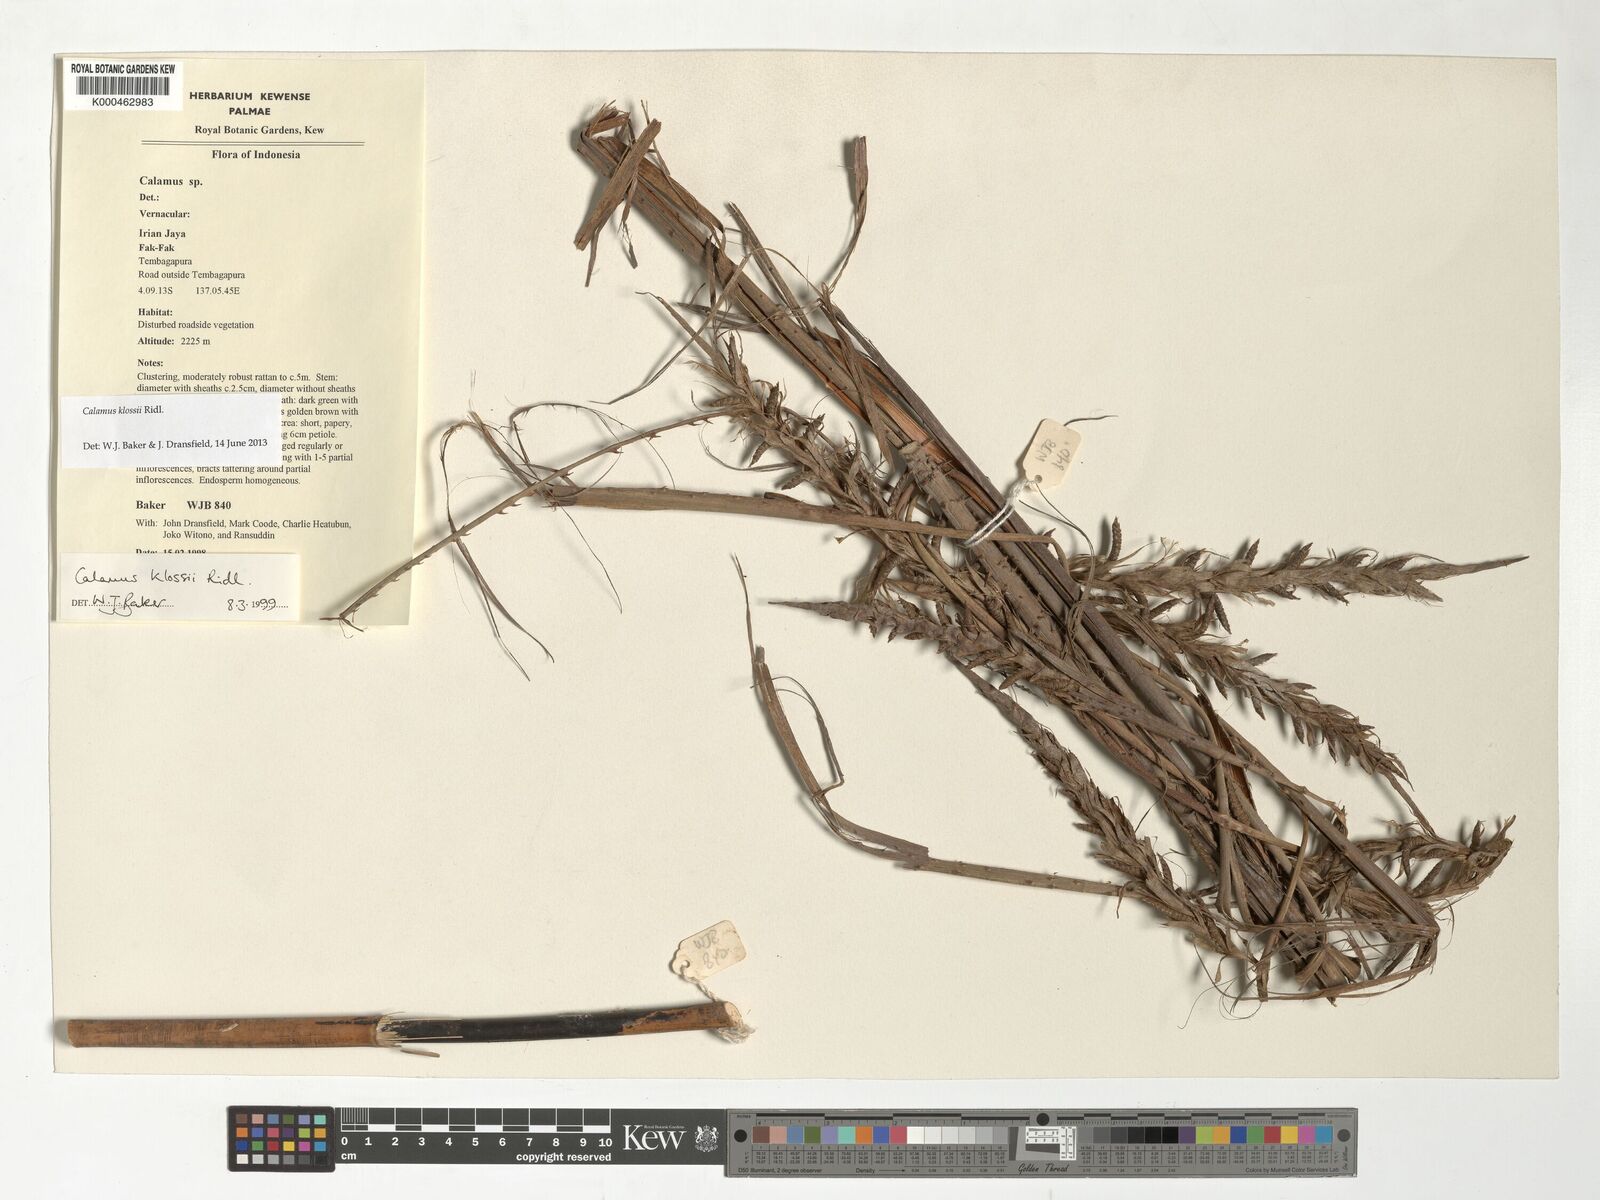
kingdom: Plantae
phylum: Tracheophyta
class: Liliopsida
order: Arecales
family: Arecaceae
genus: Calamus
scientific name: Calamus klossii
